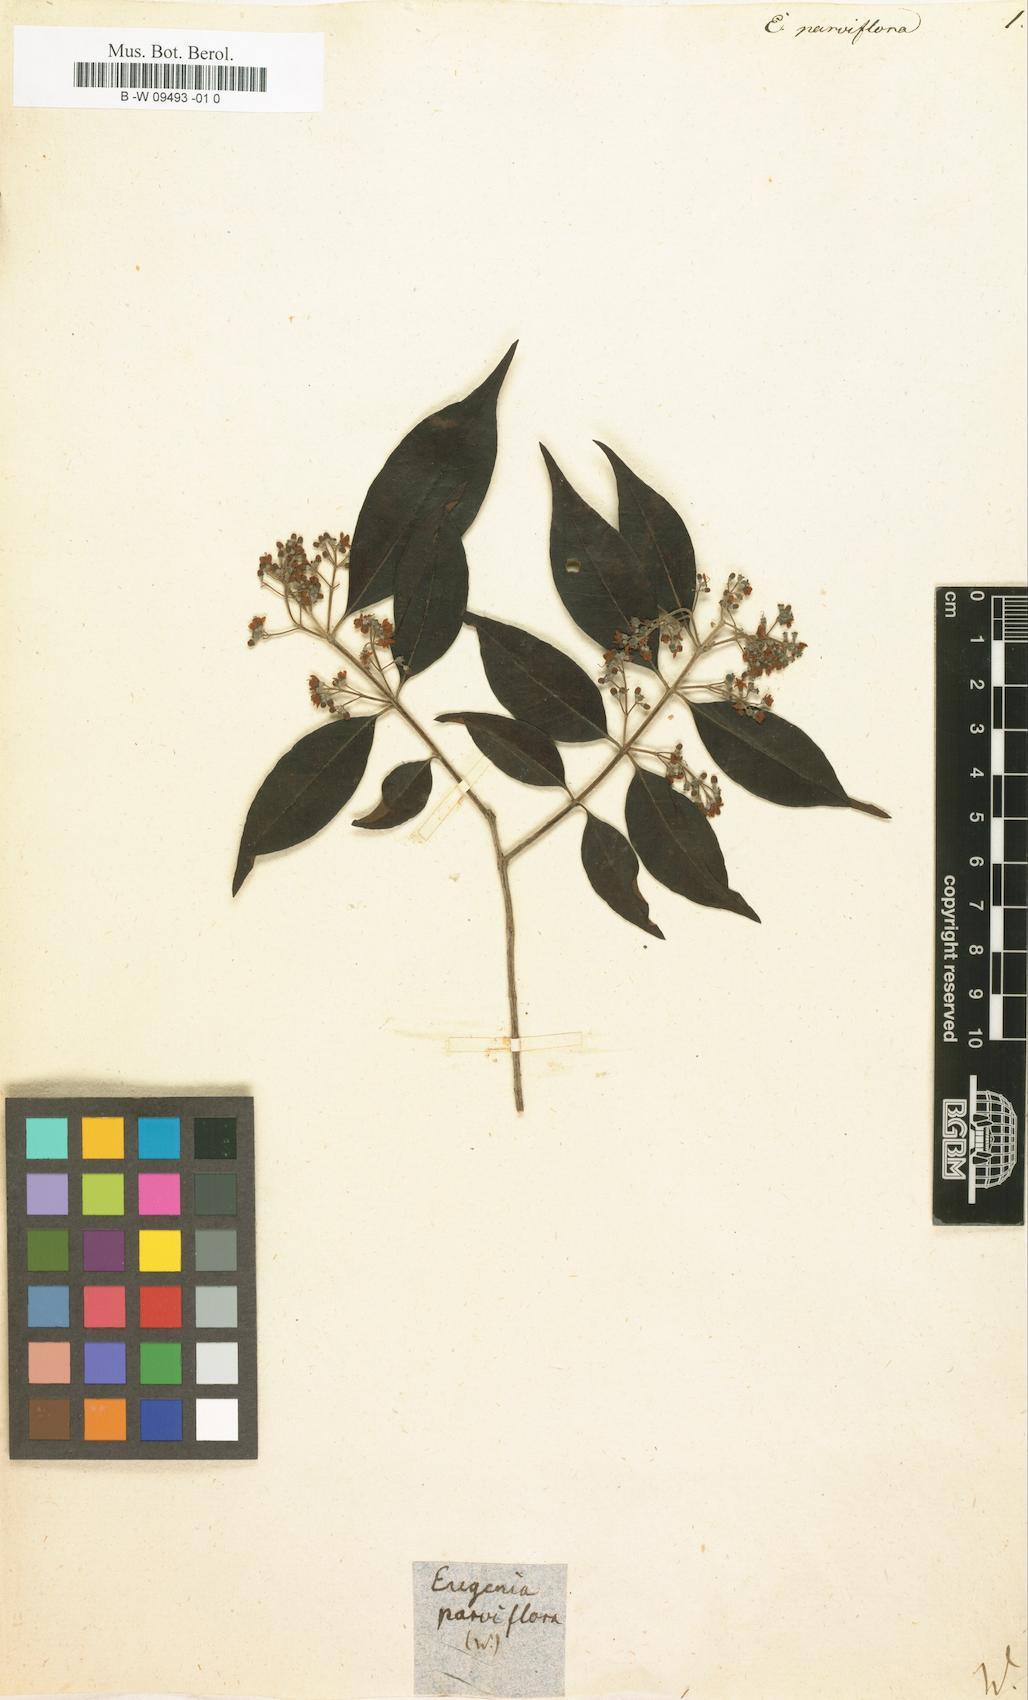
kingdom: Plantae
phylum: Tracheophyta
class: Magnoliopsida
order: Myrtales
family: Myrtaceae
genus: Decaspermum
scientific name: Decaspermum parviflorum
